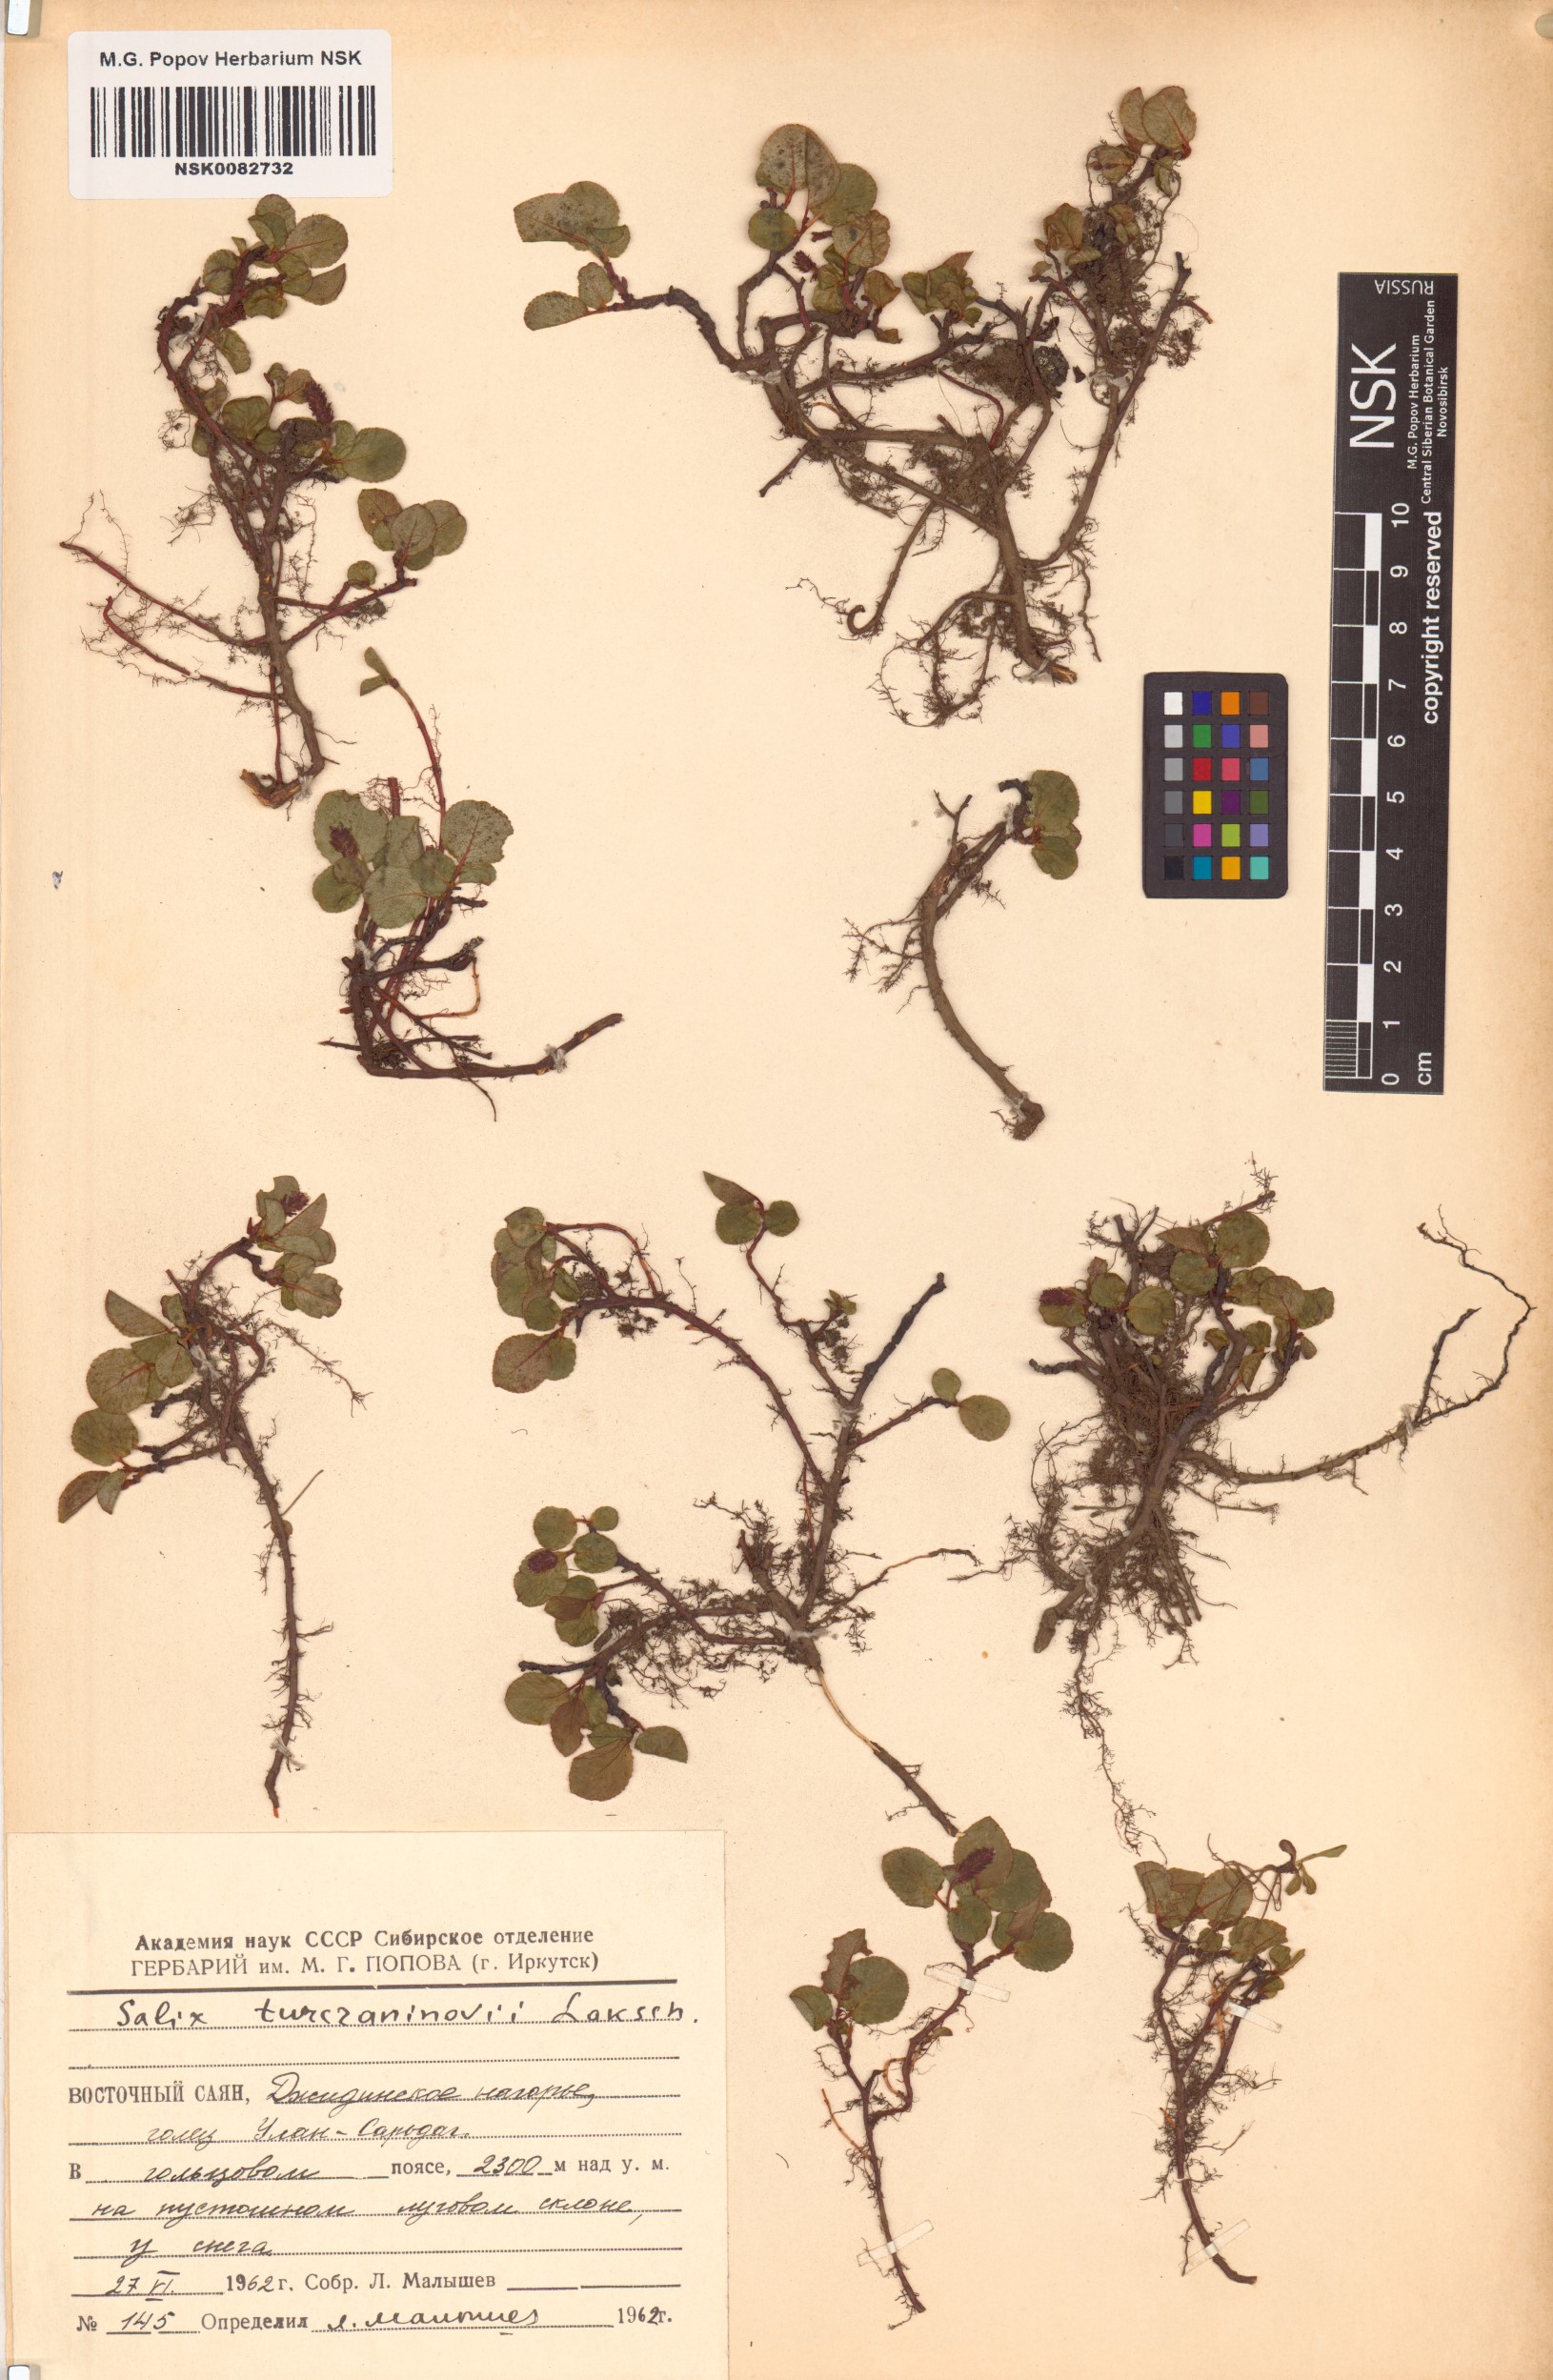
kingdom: Plantae
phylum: Tracheophyta
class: Magnoliopsida
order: Malpighiales
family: Salicaceae
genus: Salix
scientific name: Salix turczaninowii
